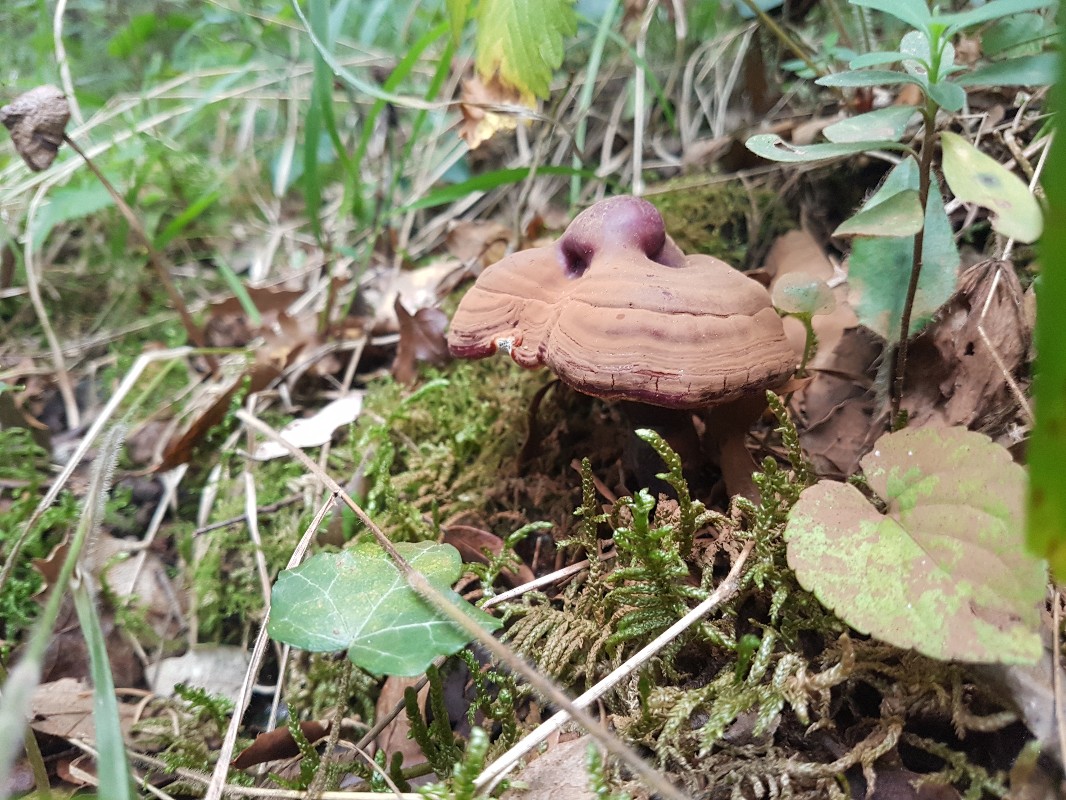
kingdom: Fungi
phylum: Basidiomycota
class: Agaricomycetes
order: Polyporales
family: Polyporaceae
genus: Ganoderma
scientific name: Ganoderma lucidum
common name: skinnende lakporesvamp
